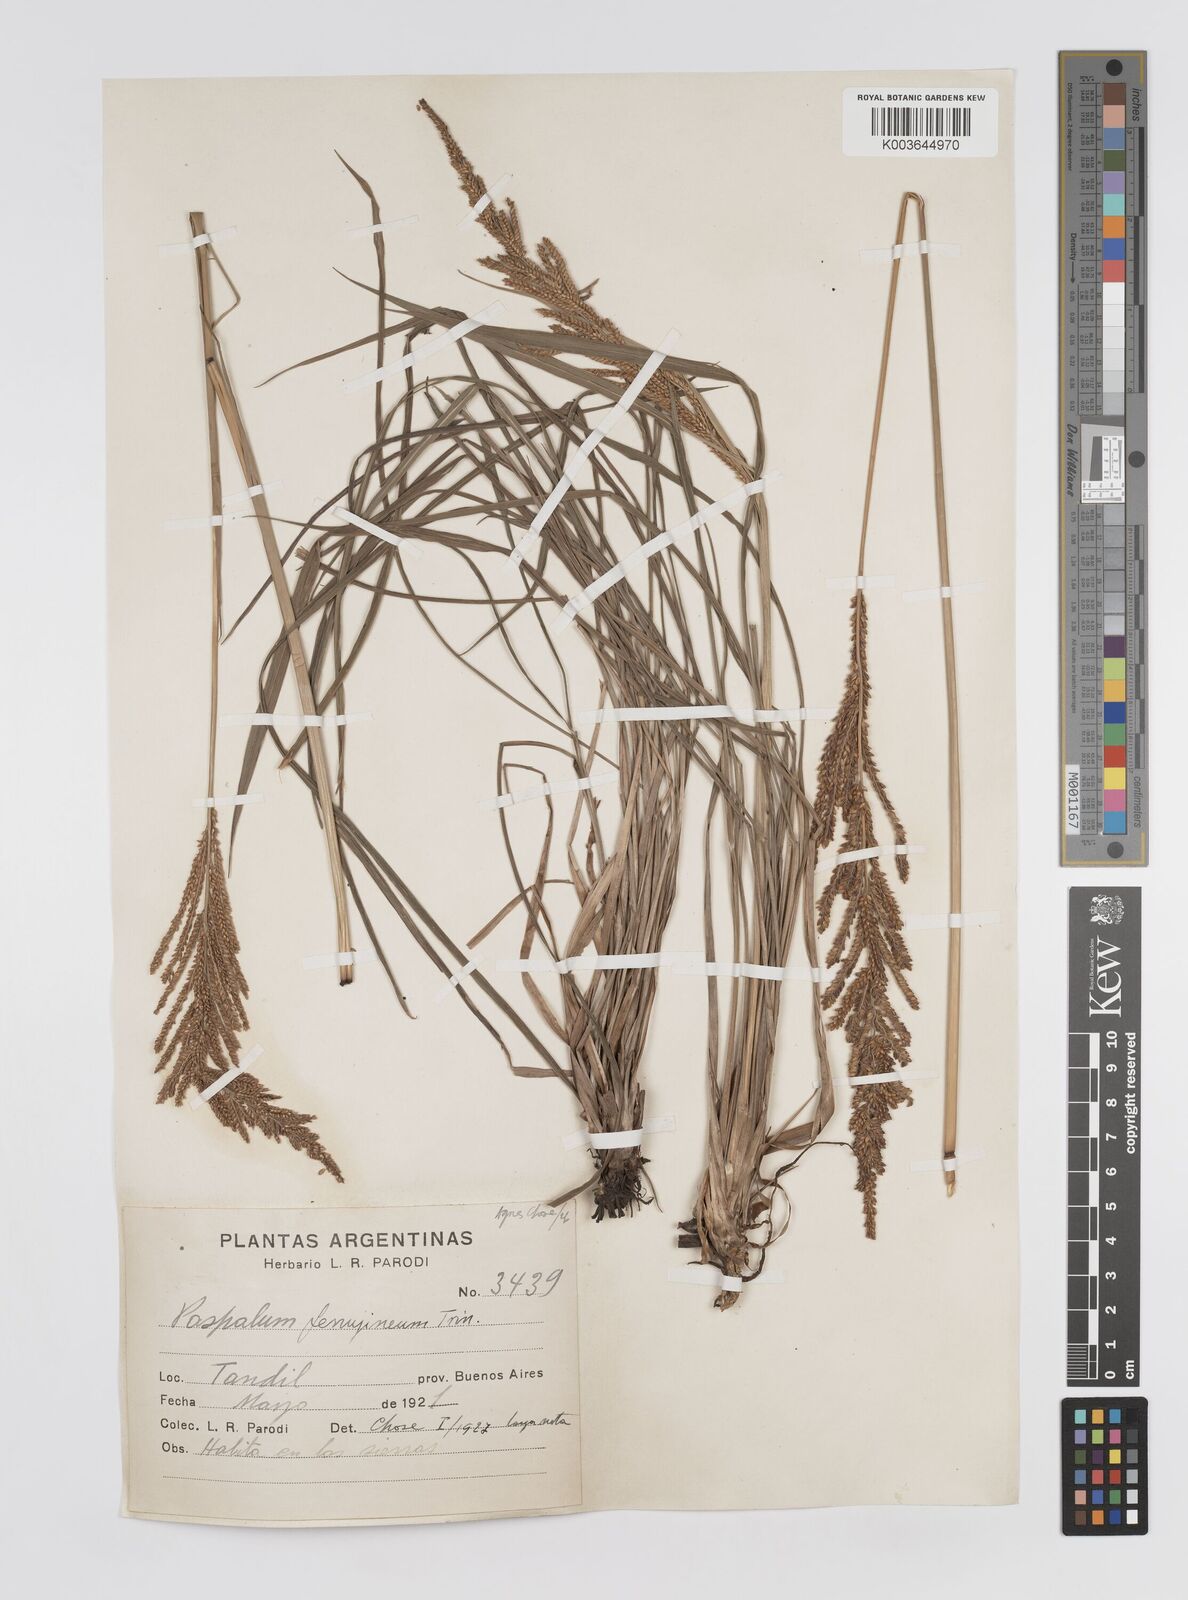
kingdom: Plantae
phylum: Tracheophyta
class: Liliopsida
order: Poales
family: Poaceae
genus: Paspalum
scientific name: Paspalum quadrifarium
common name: Tussock paspalum
